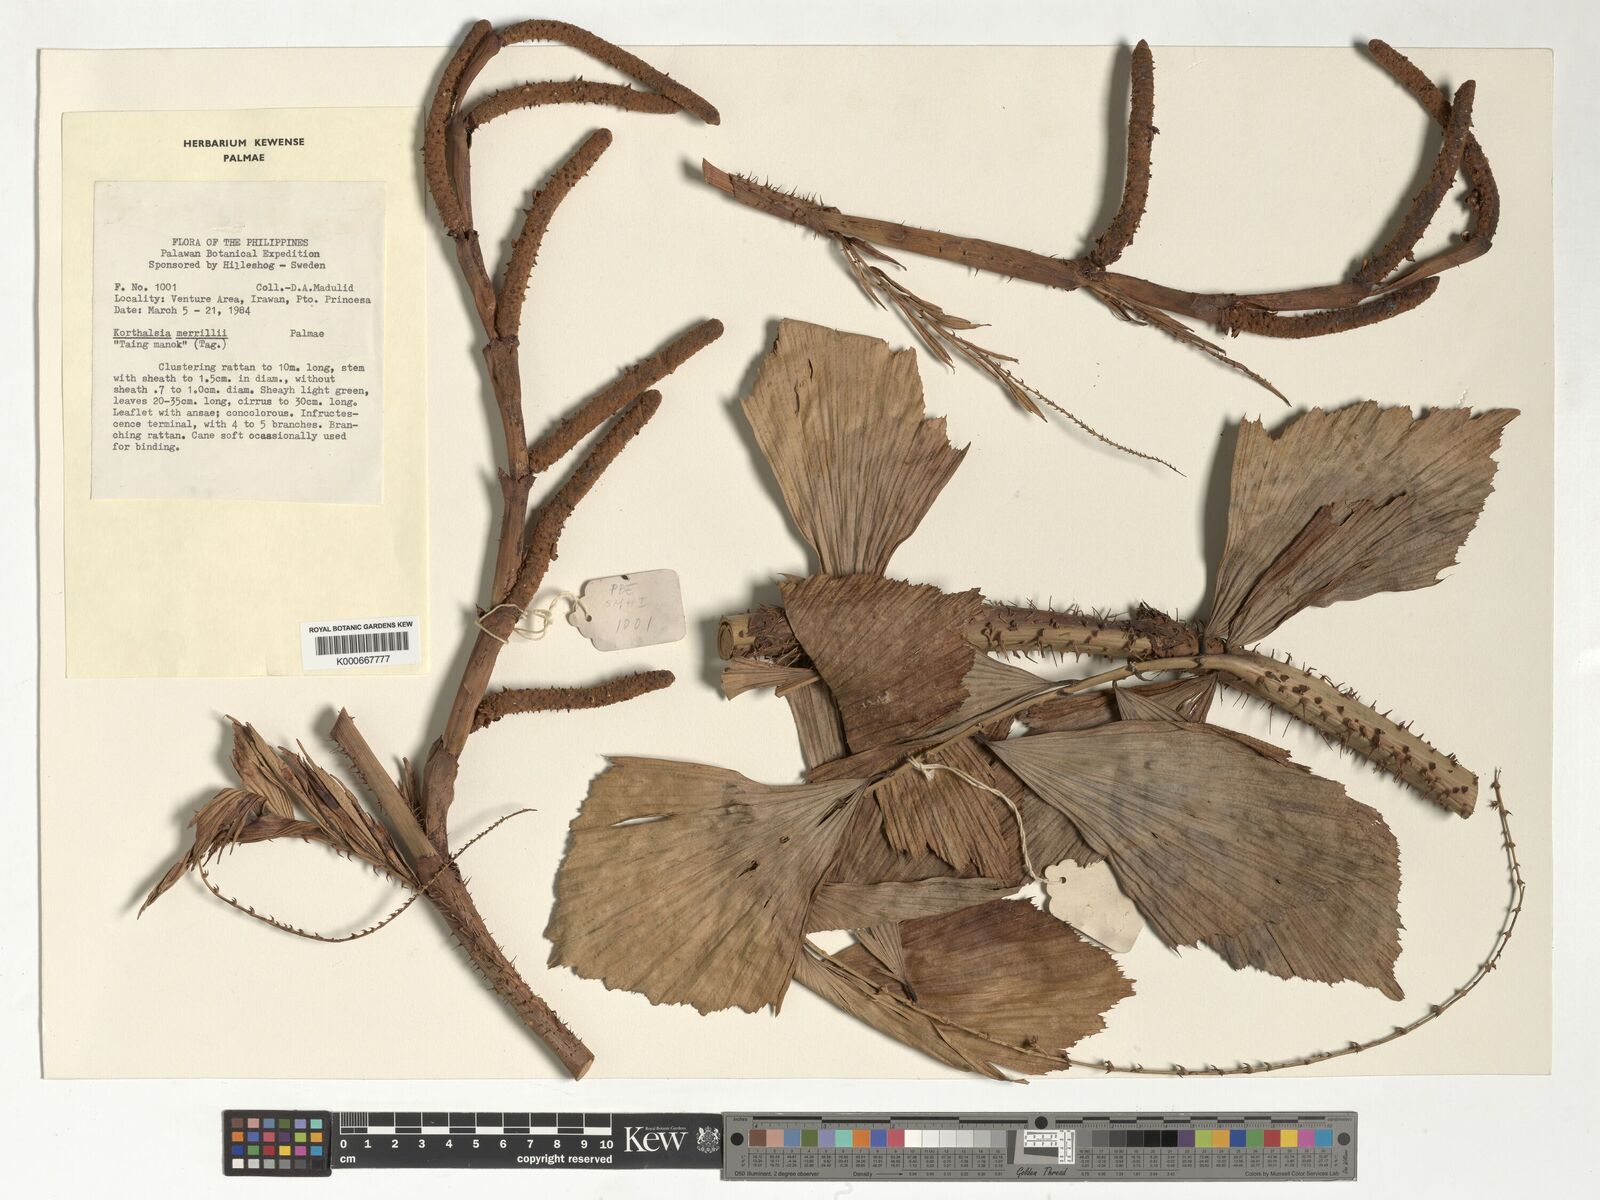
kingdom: Plantae
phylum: Tracheophyta
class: Liliopsida
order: Arecales
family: Arecaceae
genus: Korthalsia
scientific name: Korthalsia merrillii
